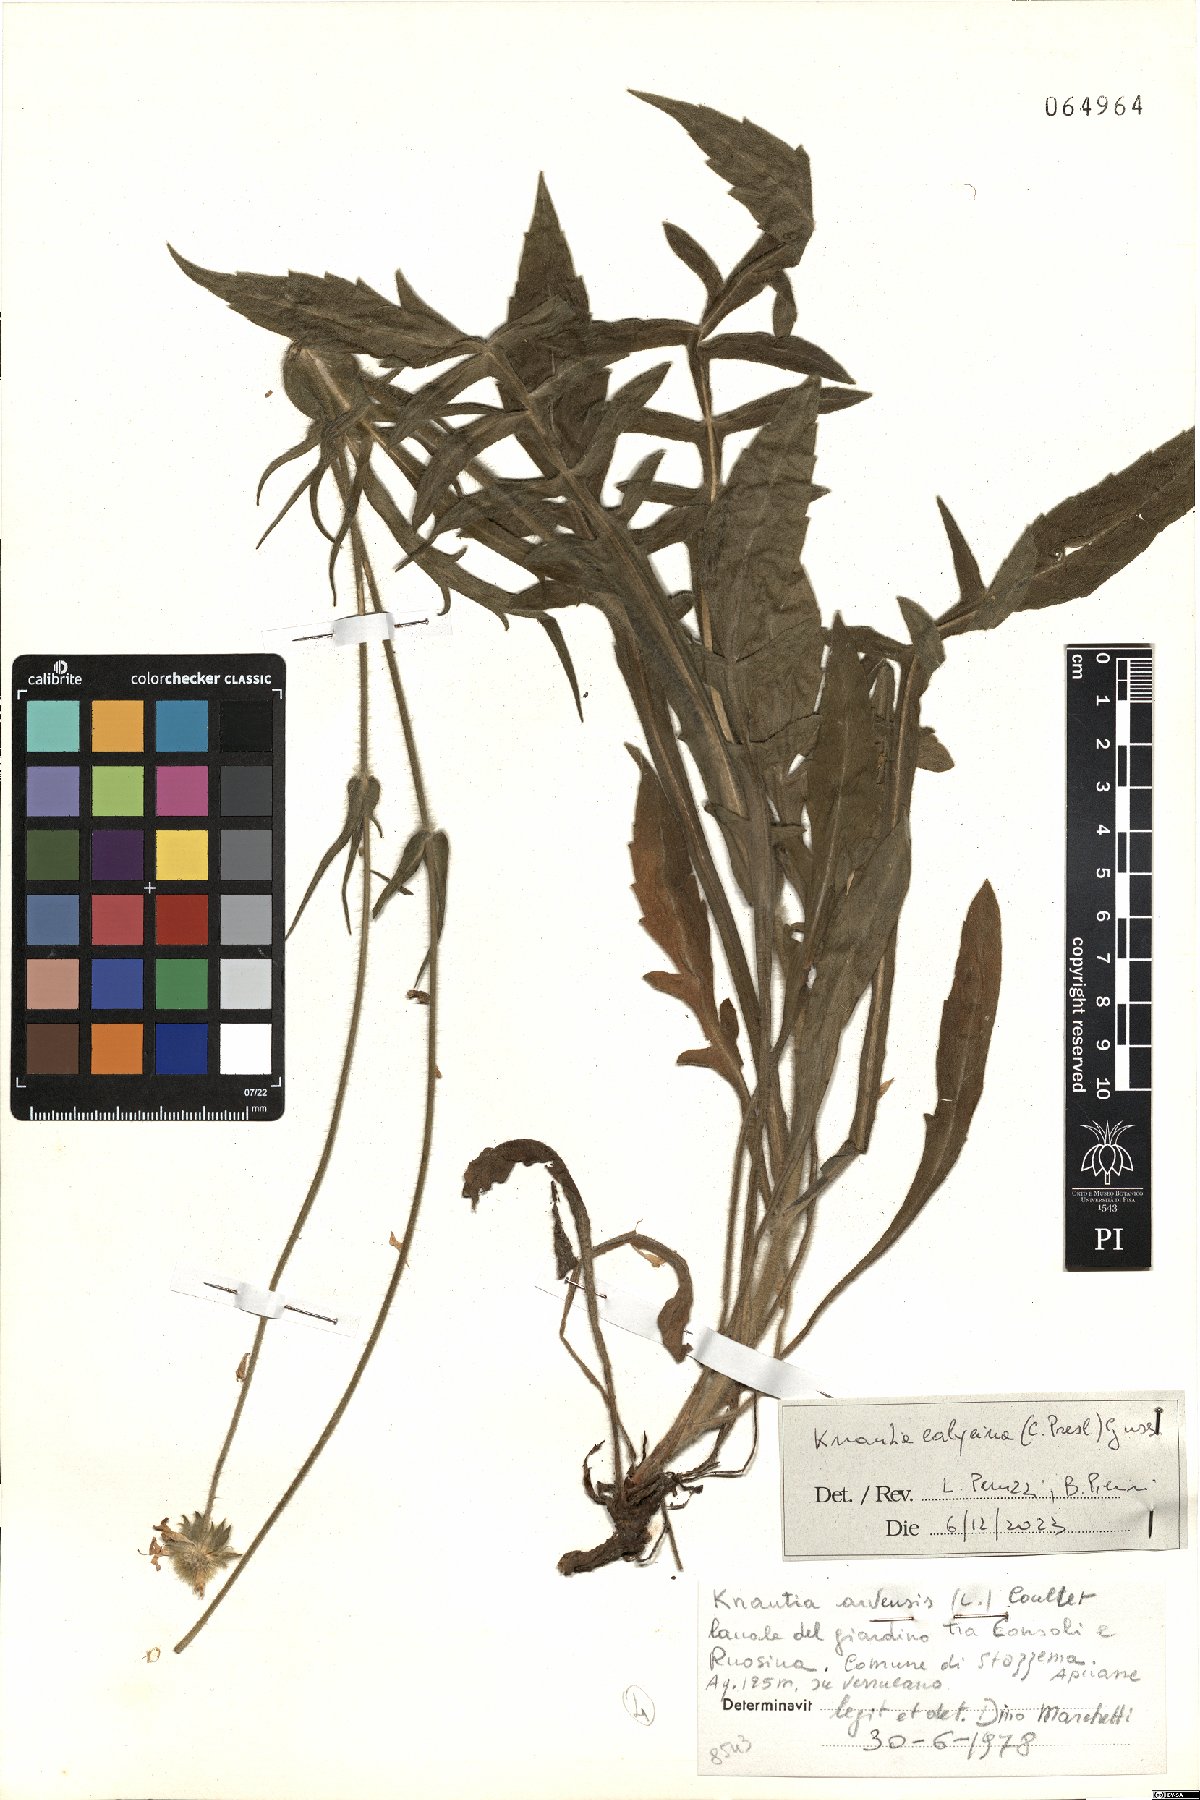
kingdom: Plantae
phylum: Tracheophyta
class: Magnoliopsida
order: Dipsacales
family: Caprifoliaceae
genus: Knautia
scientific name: Knautia calycina
